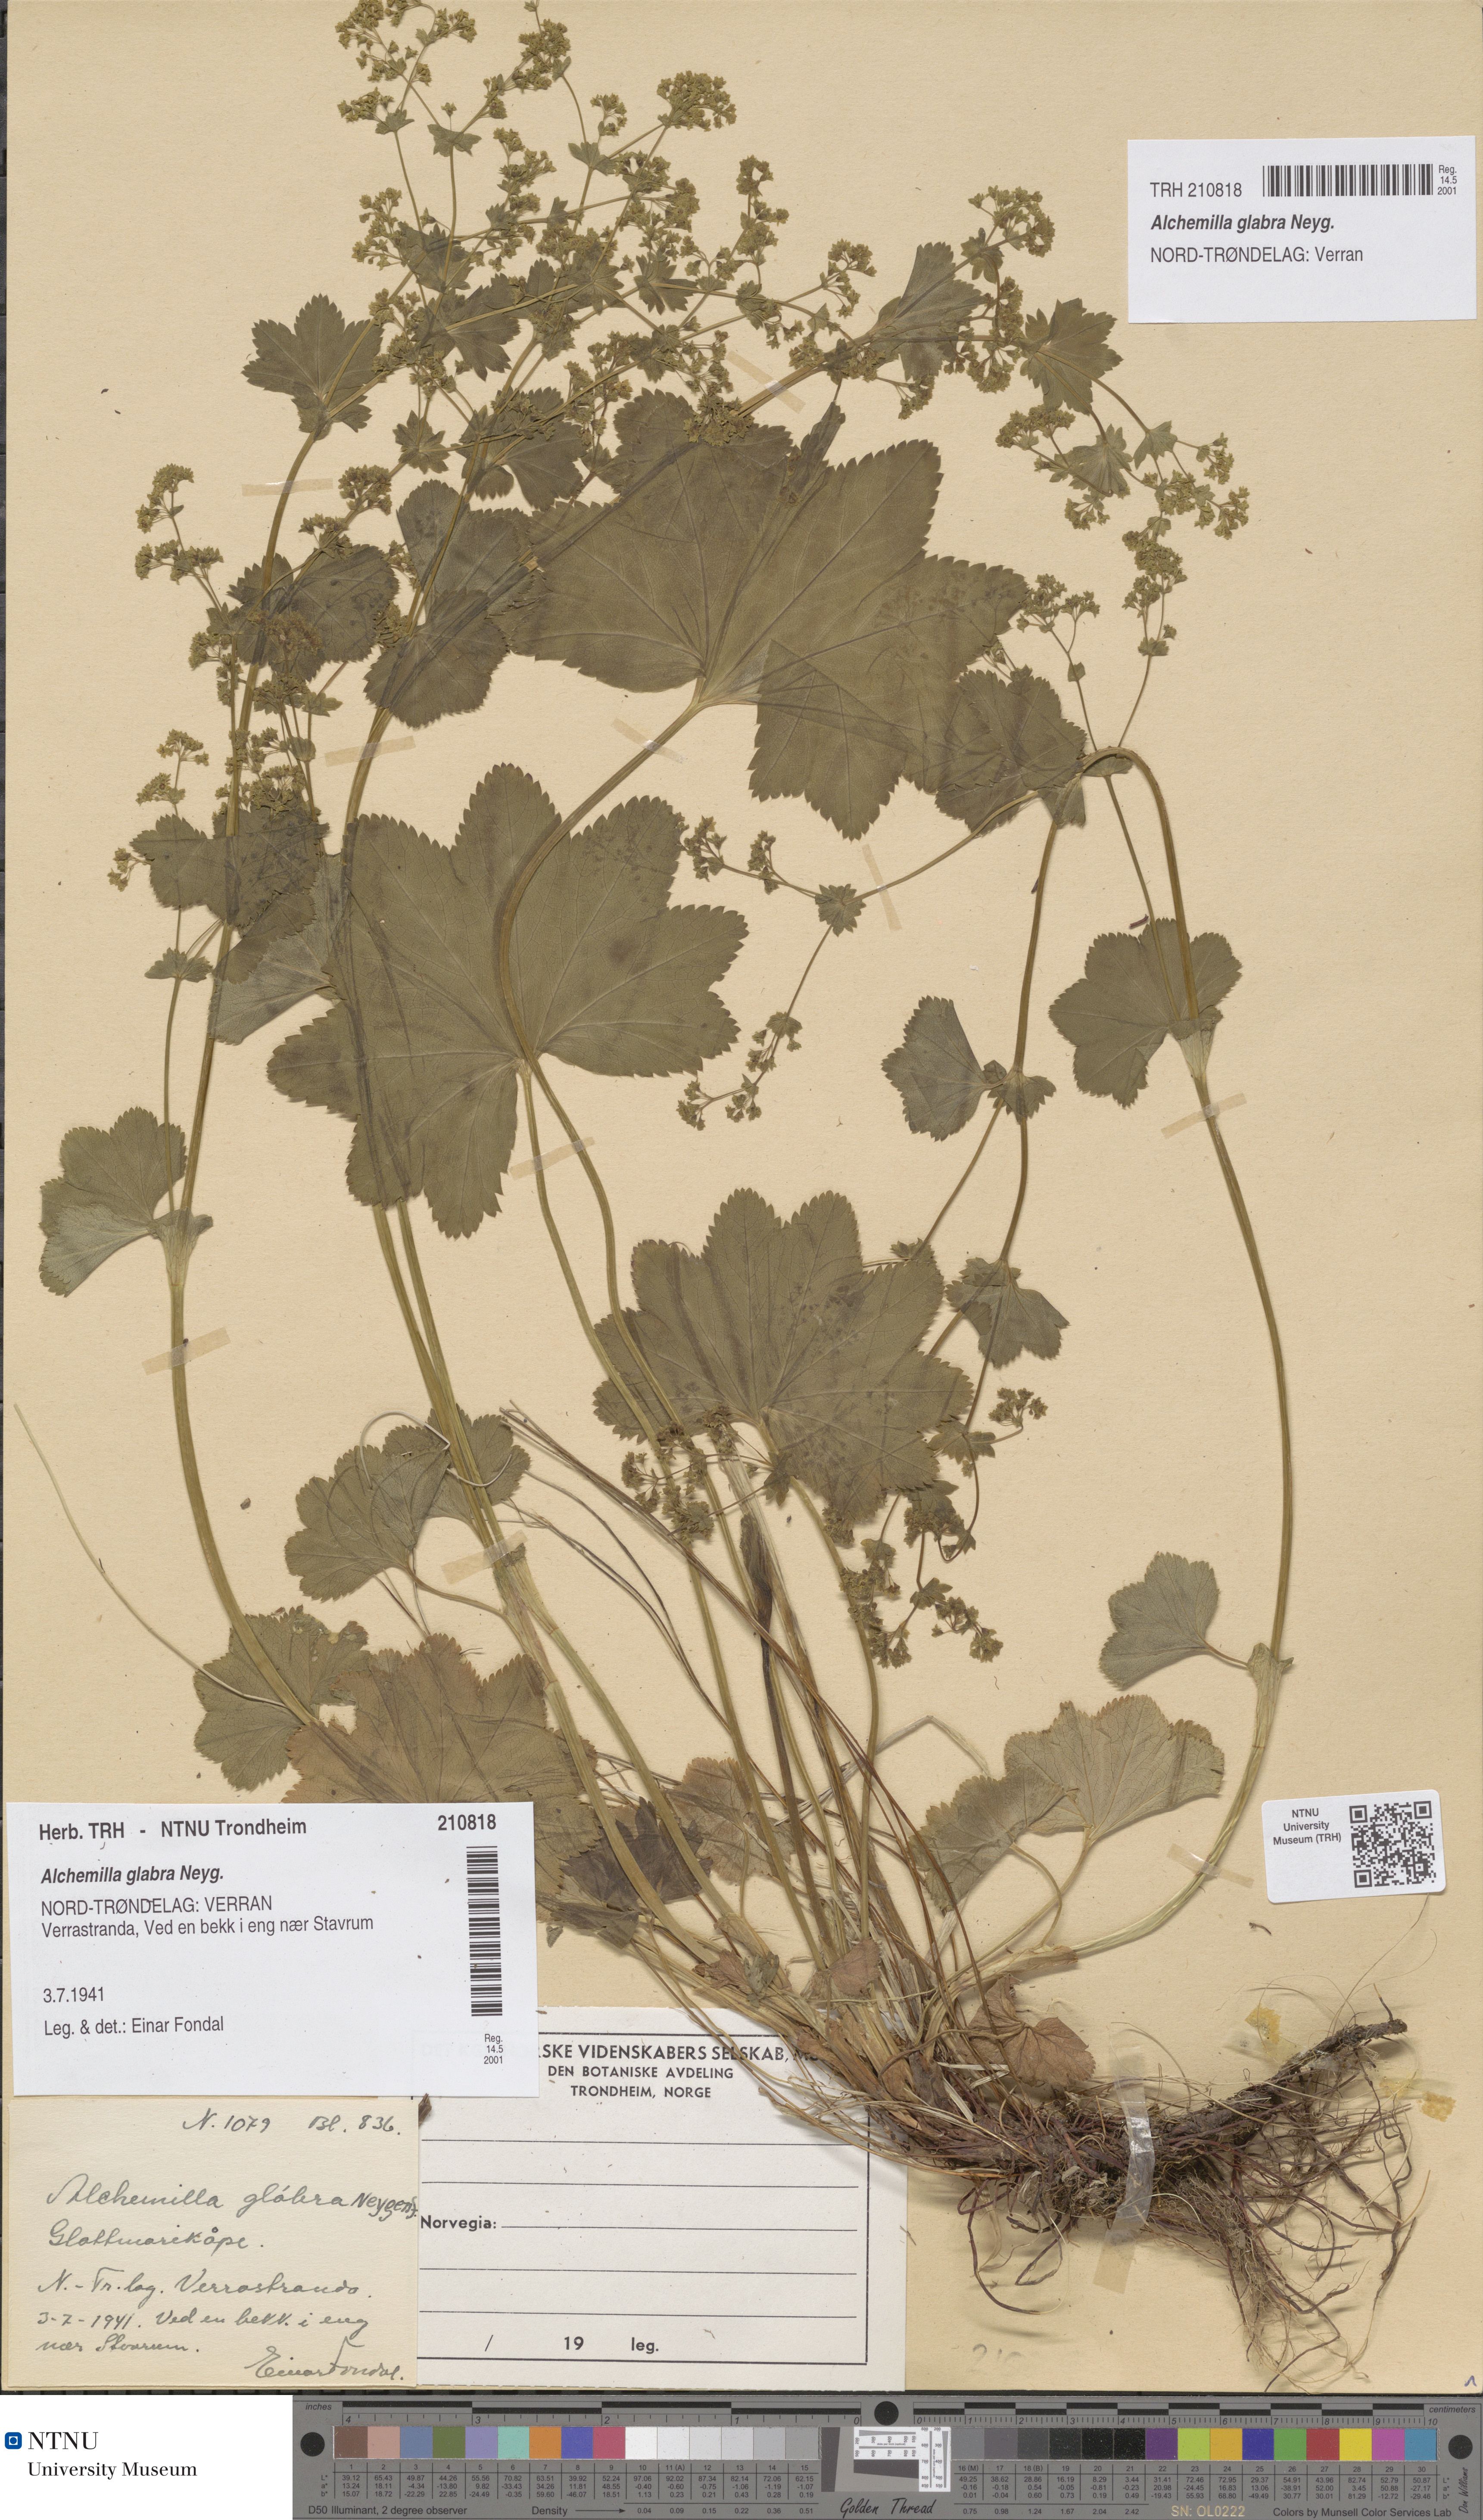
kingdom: Plantae
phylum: Tracheophyta
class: Magnoliopsida
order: Rosales
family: Rosaceae
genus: Alchemilla
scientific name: Alchemilla glabra
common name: Smooth lady's-mantle
